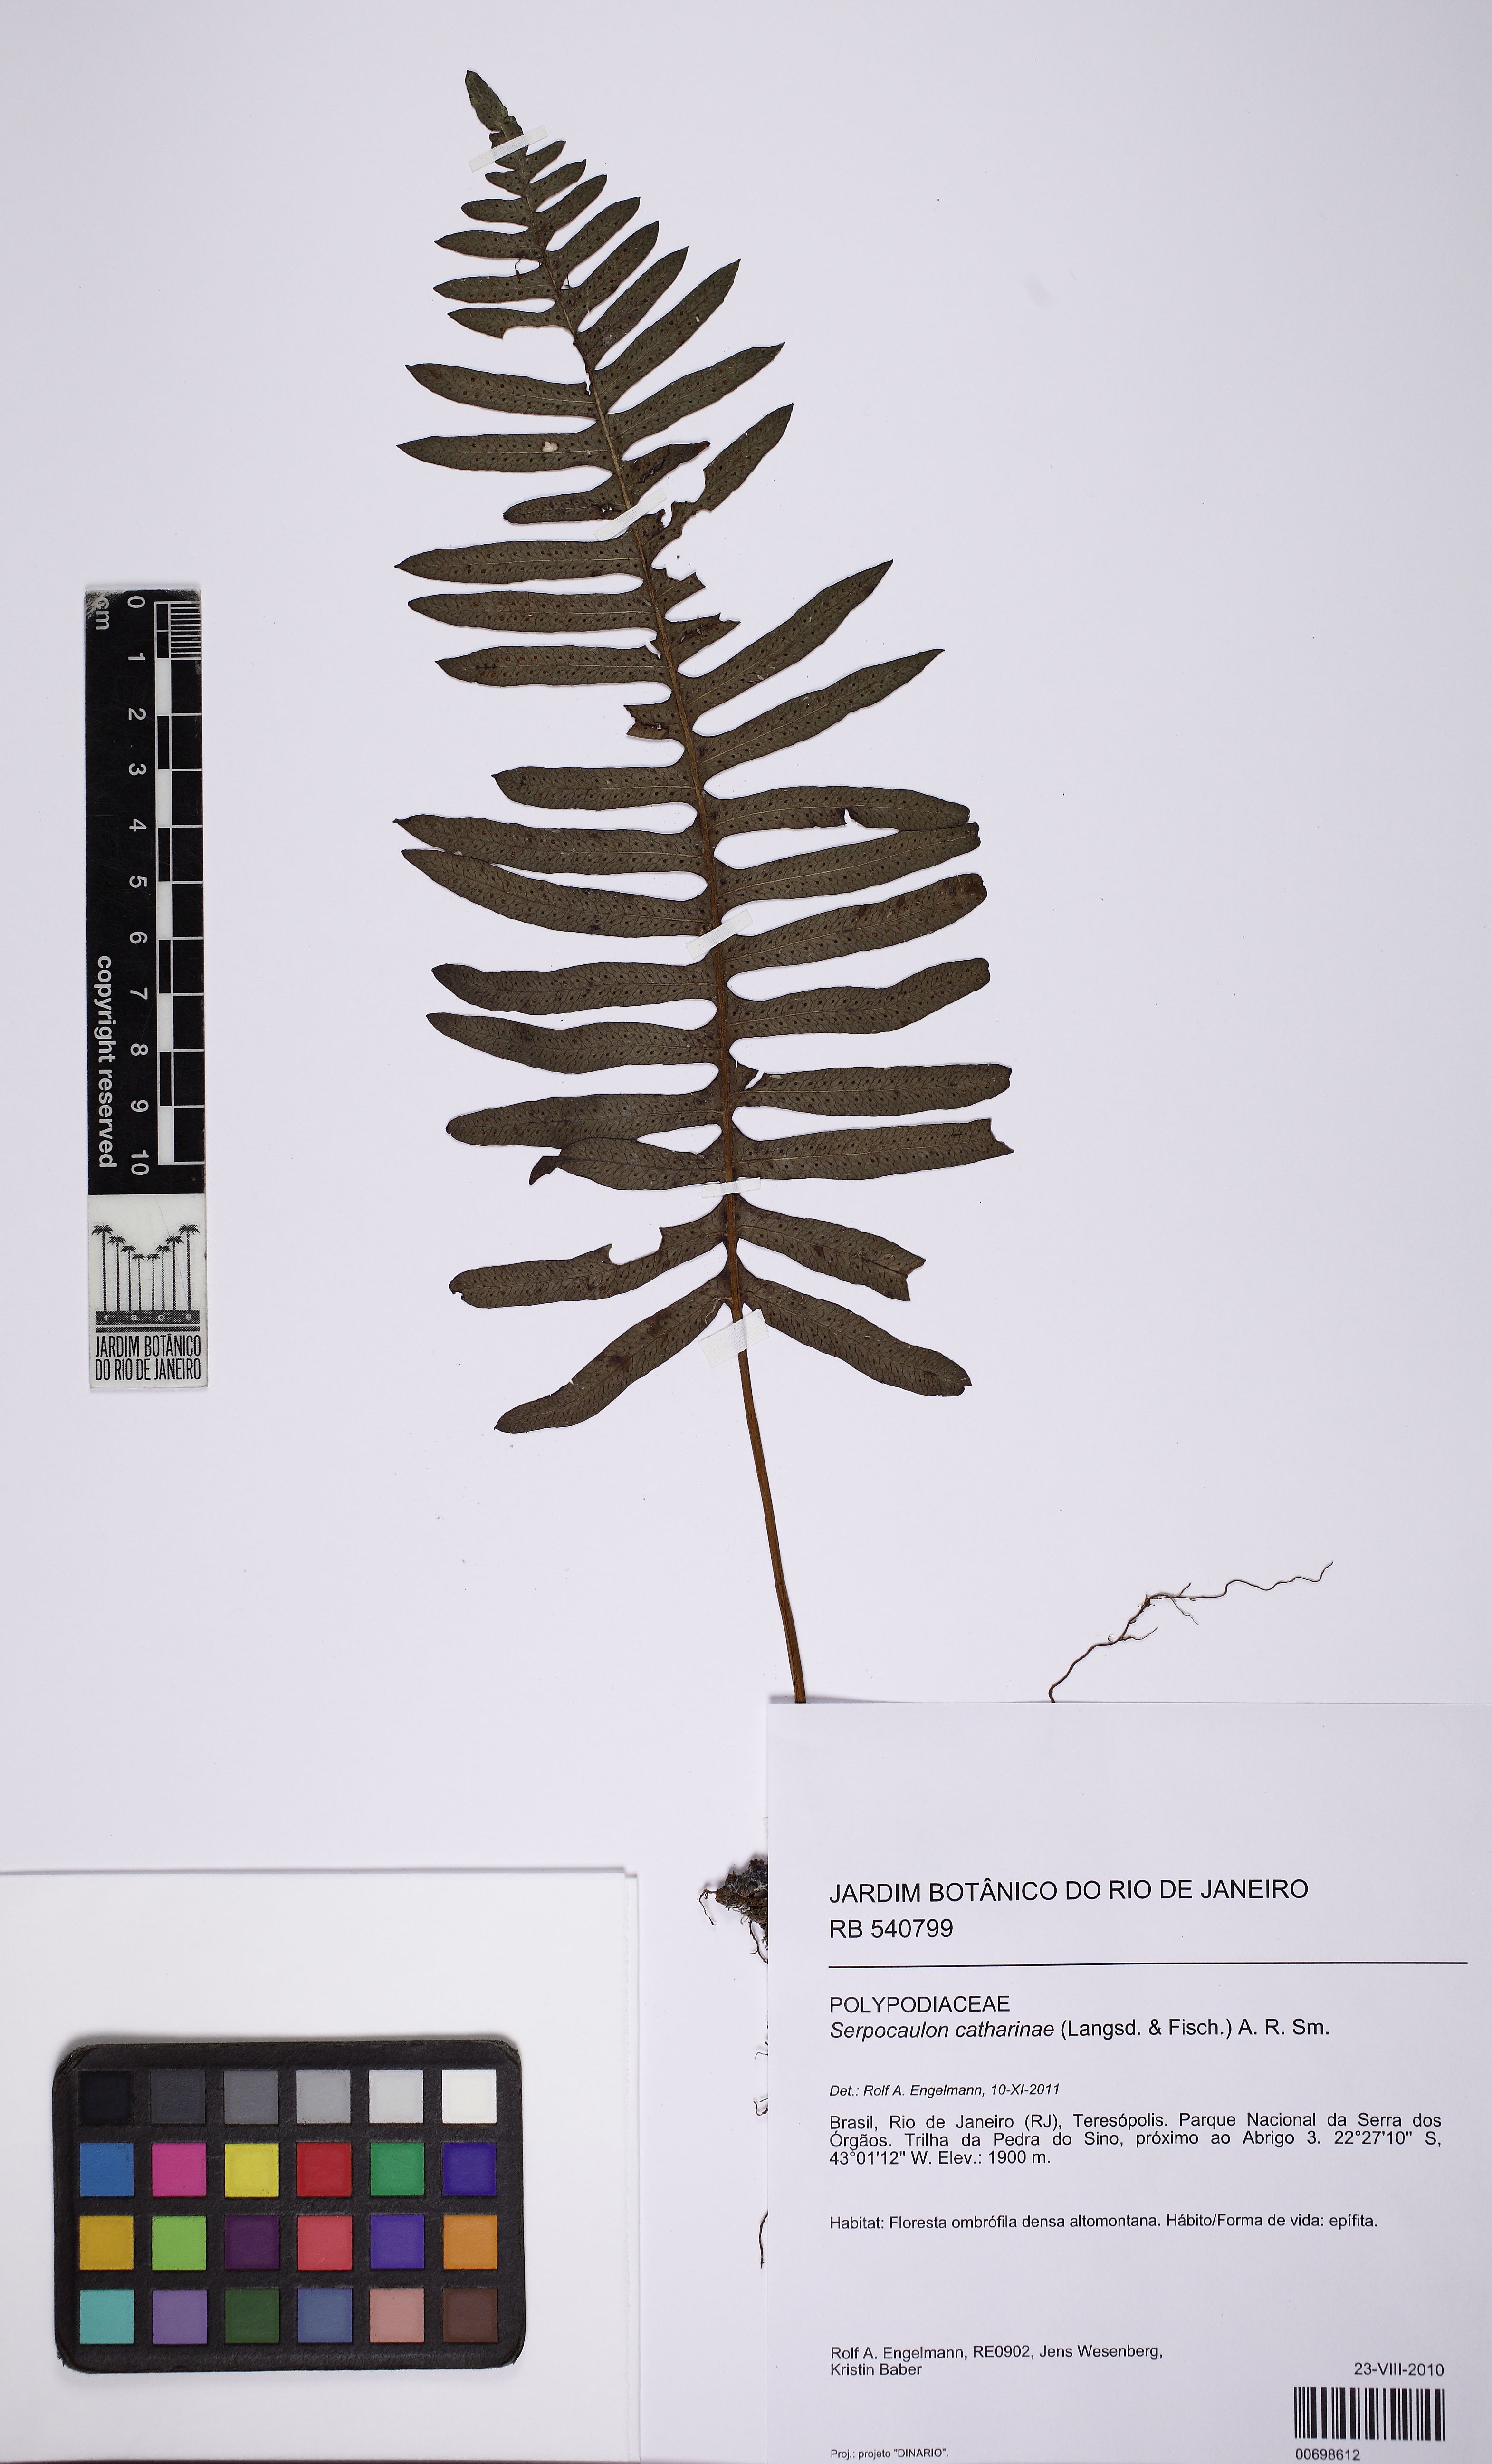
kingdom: Plantae
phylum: Tracheophyta
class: Polypodiopsida
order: Polypodiales
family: Polypodiaceae
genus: Serpocaulon
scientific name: Serpocaulon catharinae
